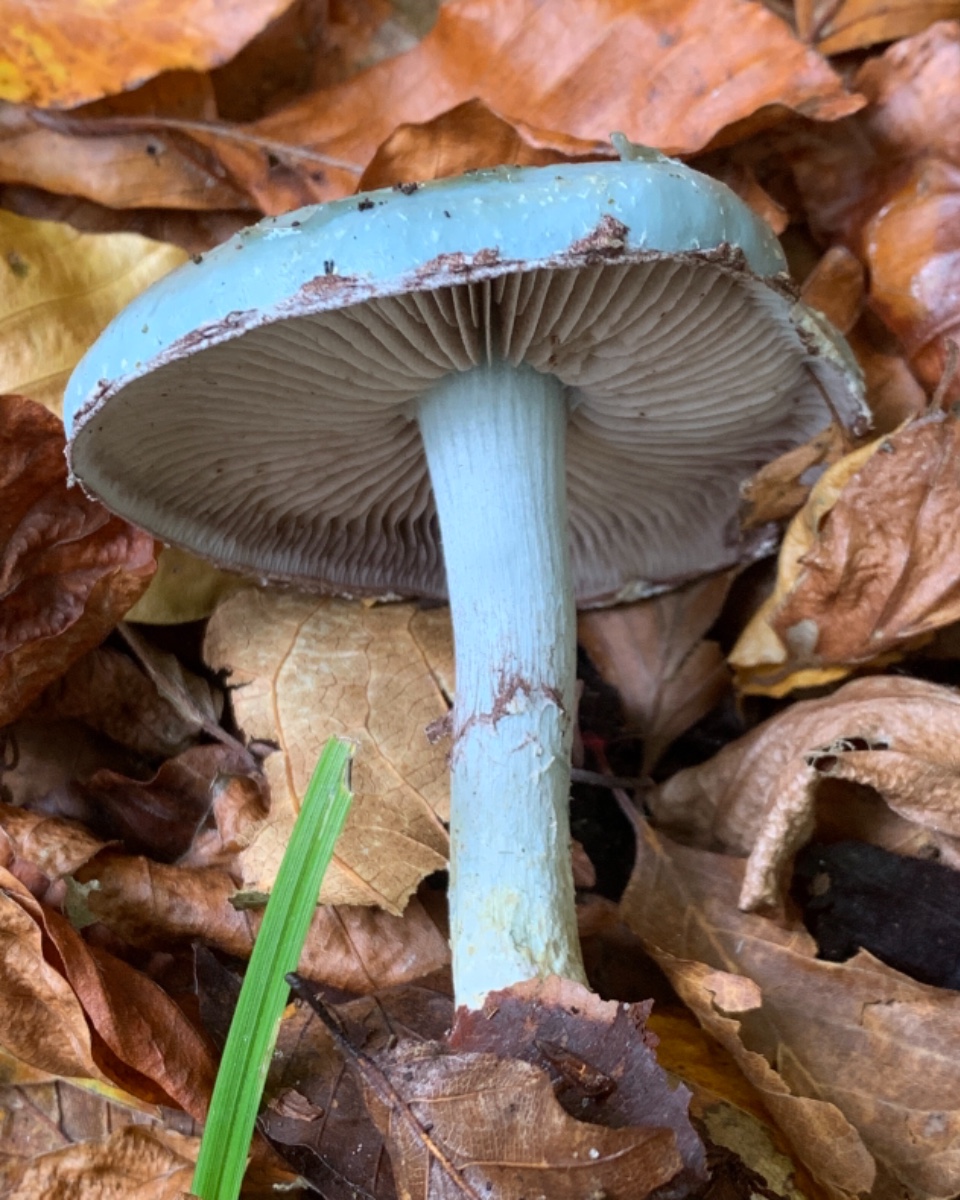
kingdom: Fungi
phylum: Basidiomycota
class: Agaricomycetes
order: Agaricales
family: Strophariaceae
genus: Stropharia
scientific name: Stropharia cyanea
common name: blågrøn bredblad
